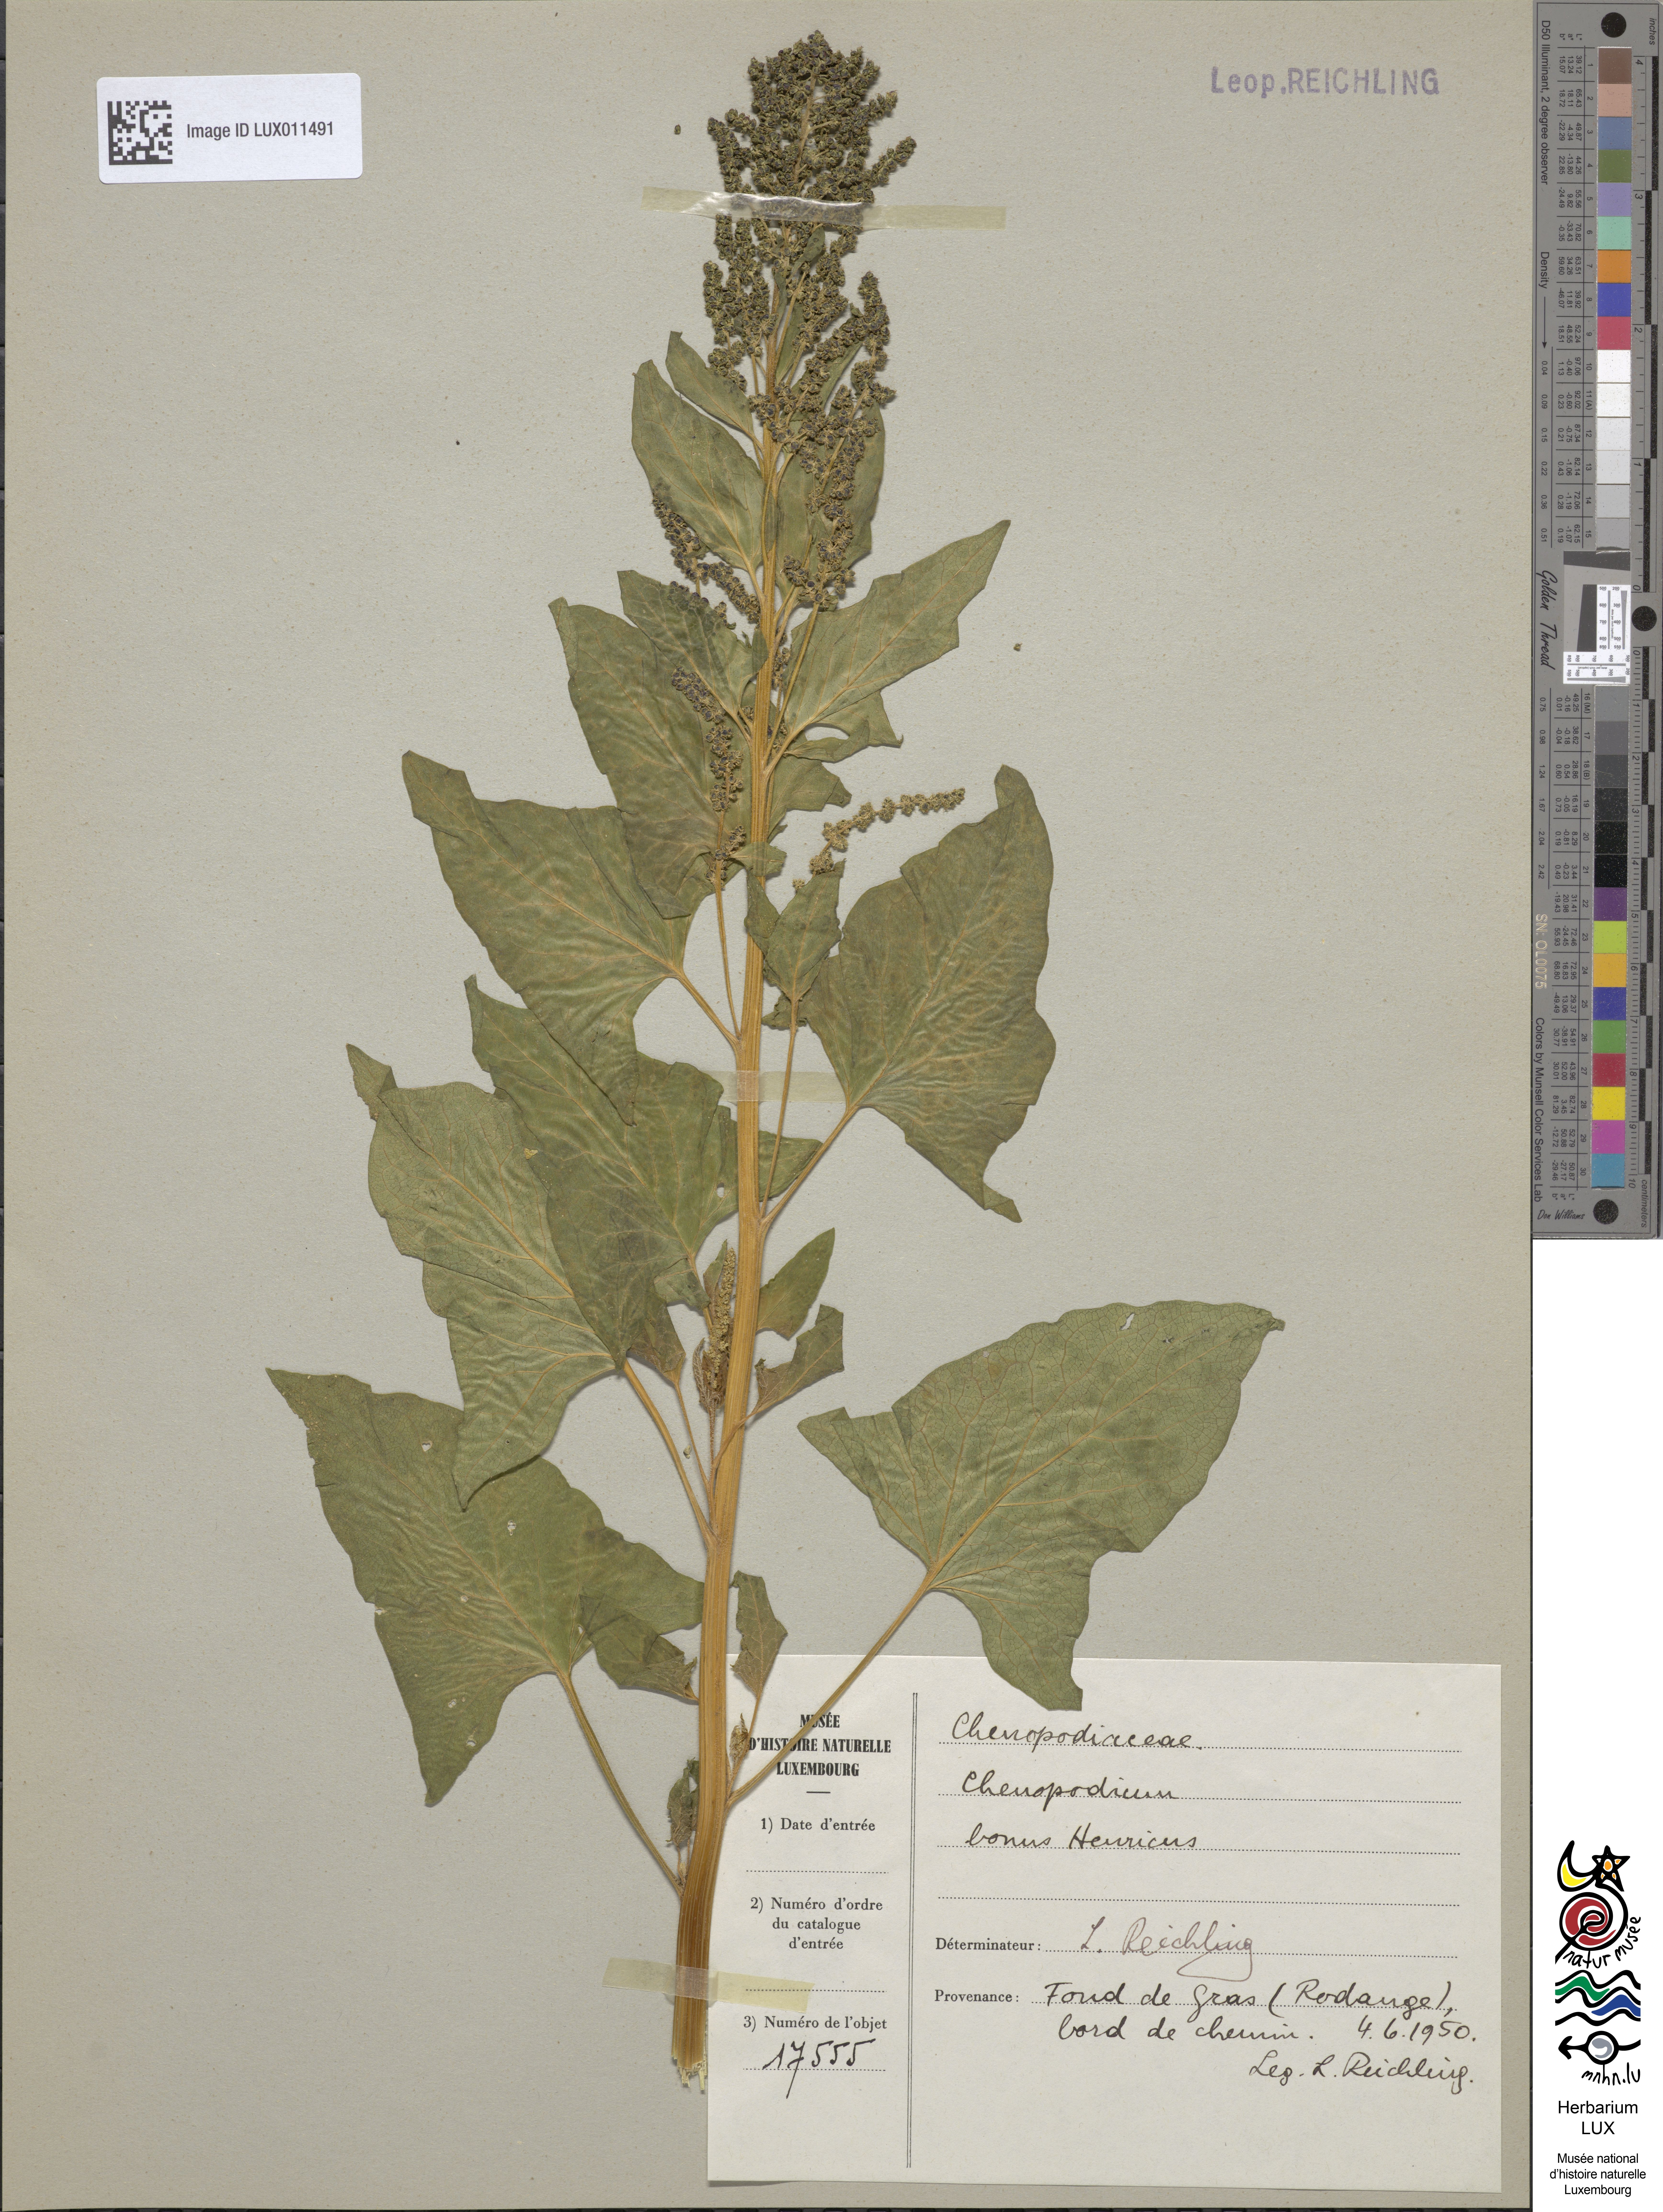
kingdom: Plantae
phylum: Tracheophyta
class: Magnoliopsida
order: Caryophyllales
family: Amaranthaceae
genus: Blitum
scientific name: Blitum bonus-henricus
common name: Good king henry
